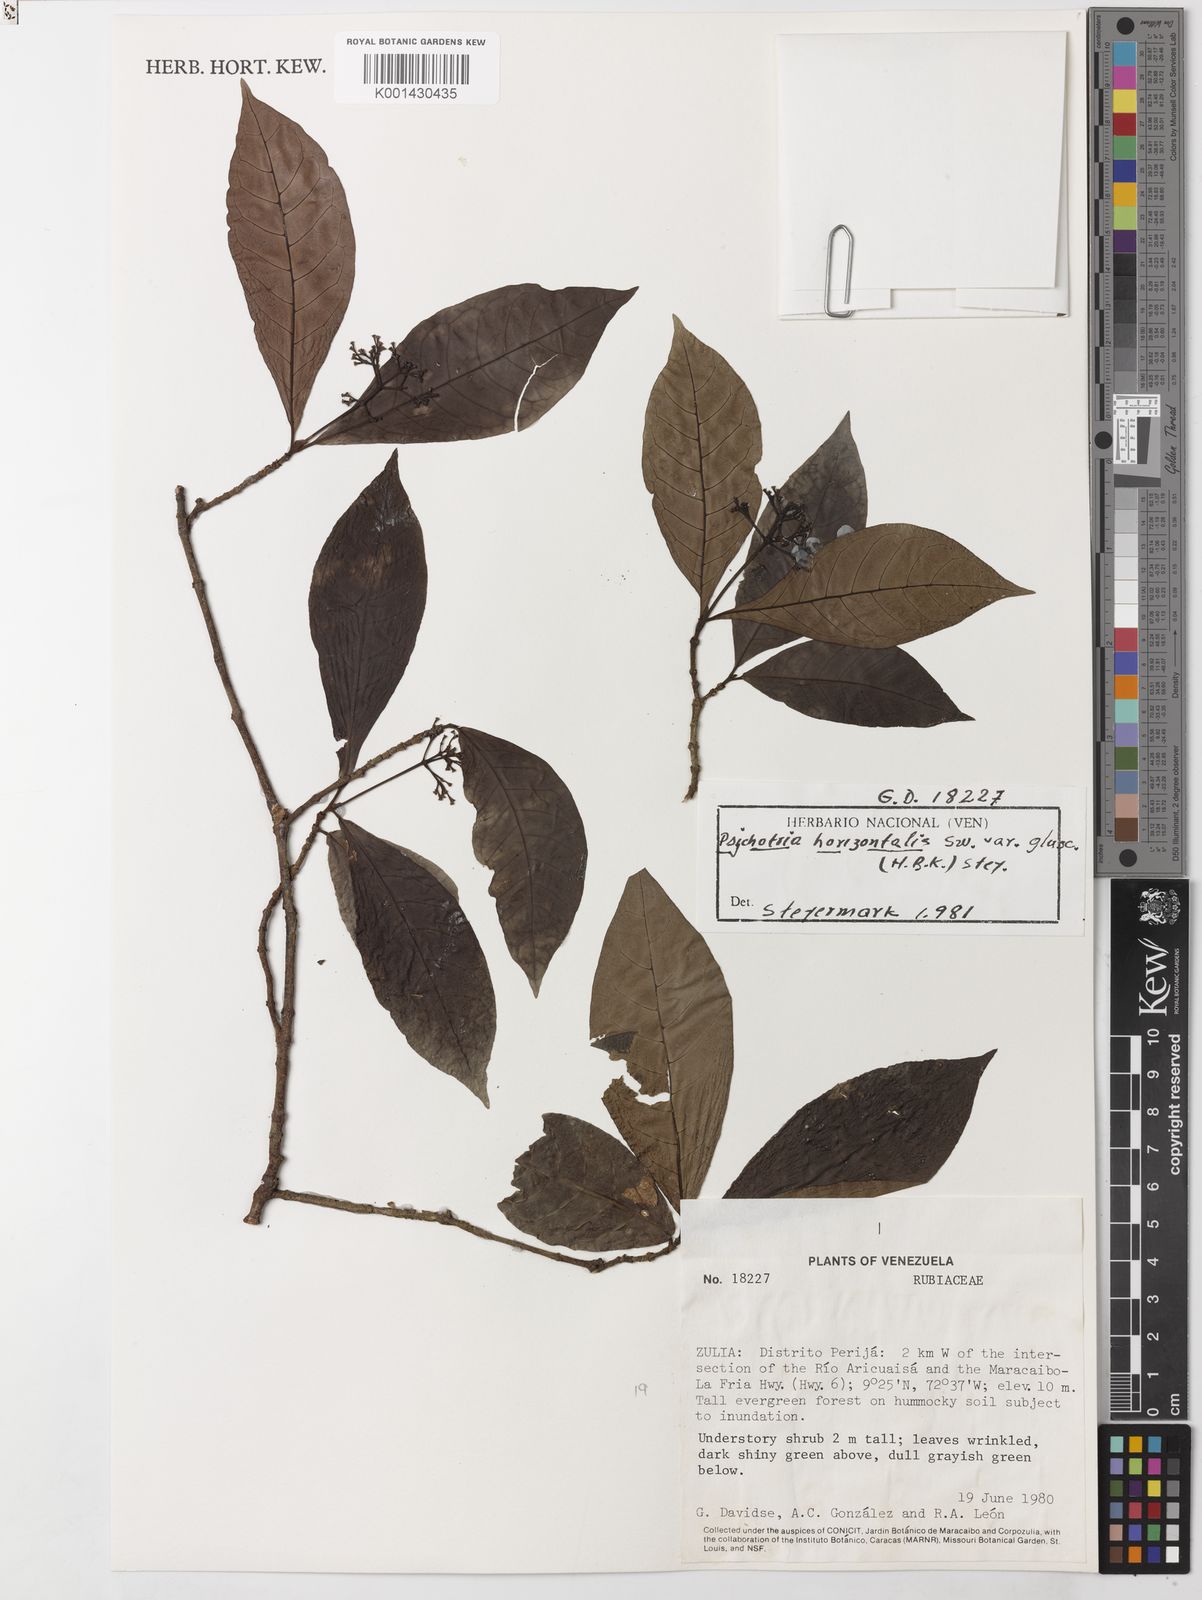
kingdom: Plantae
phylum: Tracheophyta
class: Magnoliopsida
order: Gentianales
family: Rubiaceae
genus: Psychotria
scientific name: Psychotria horizontalis
